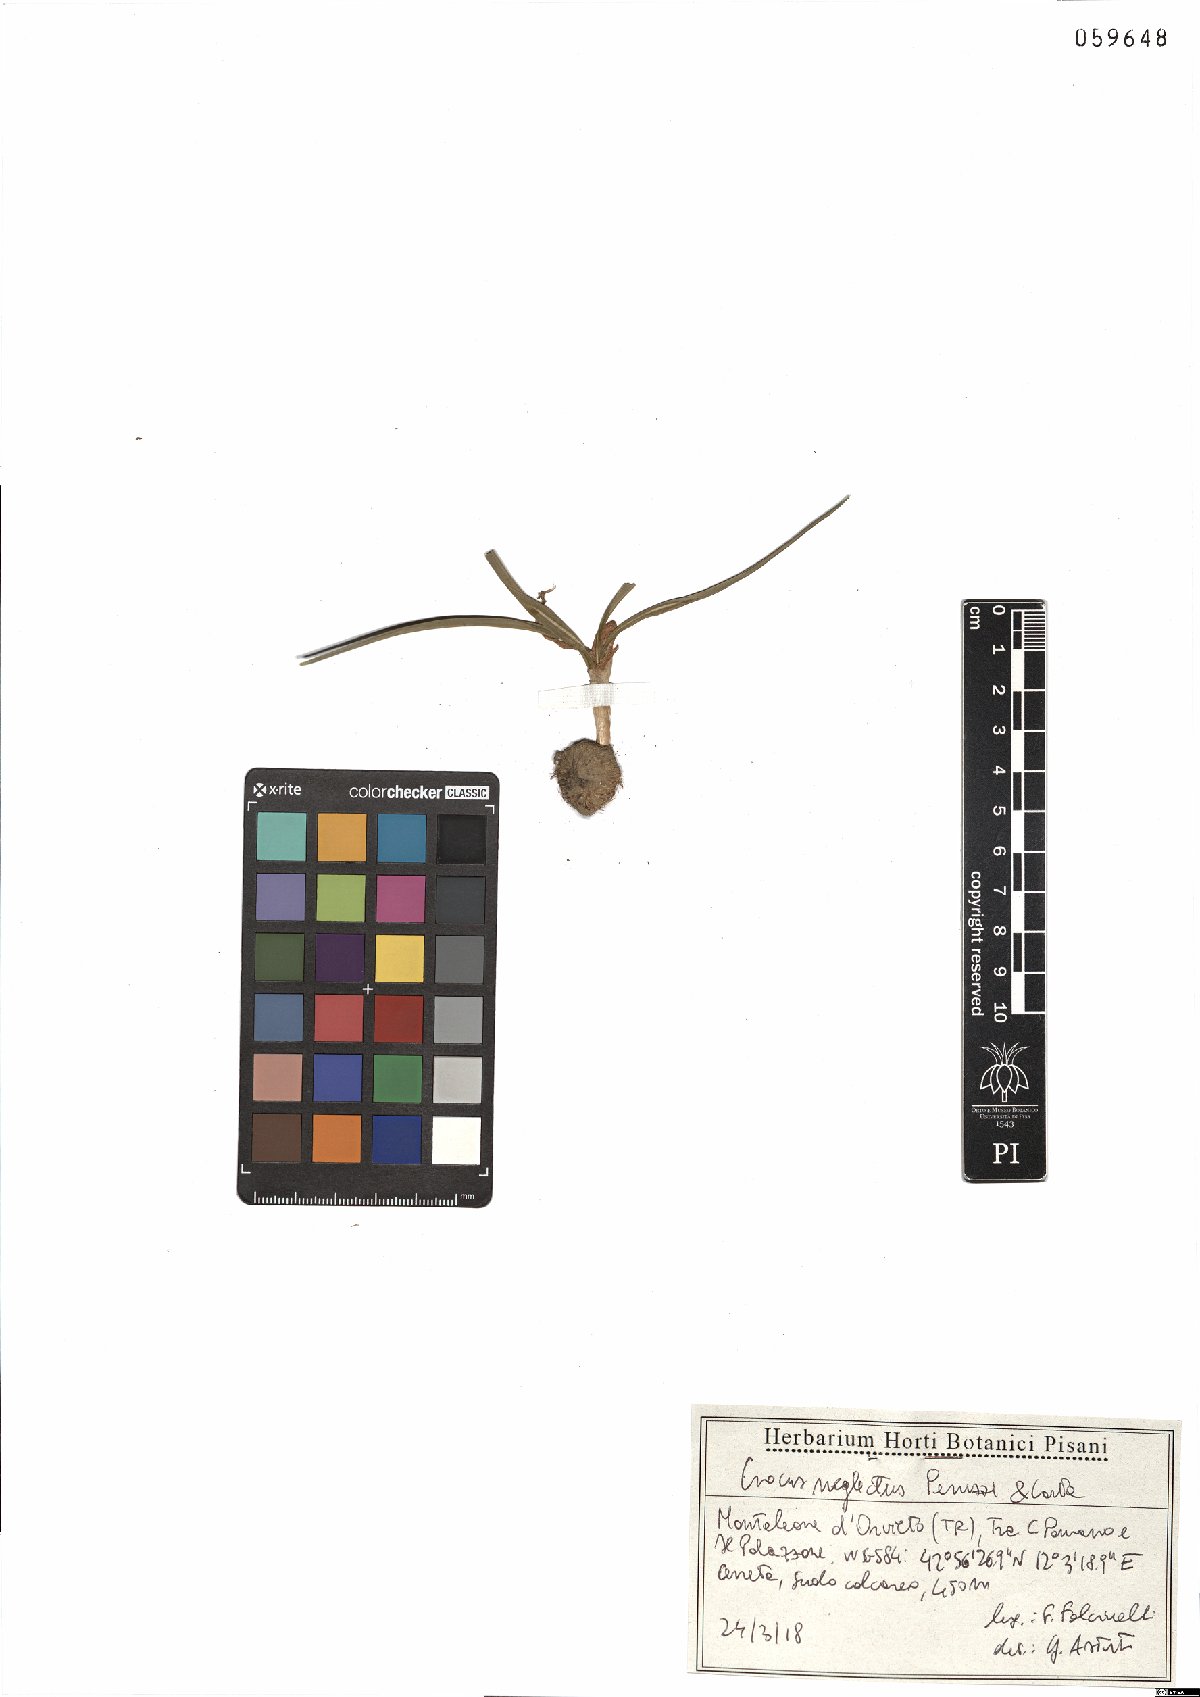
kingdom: Plantae
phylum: Tracheophyta
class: Liliopsida
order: Asparagales
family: Iridaceae
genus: Crocus
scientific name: Crocus neglectus
